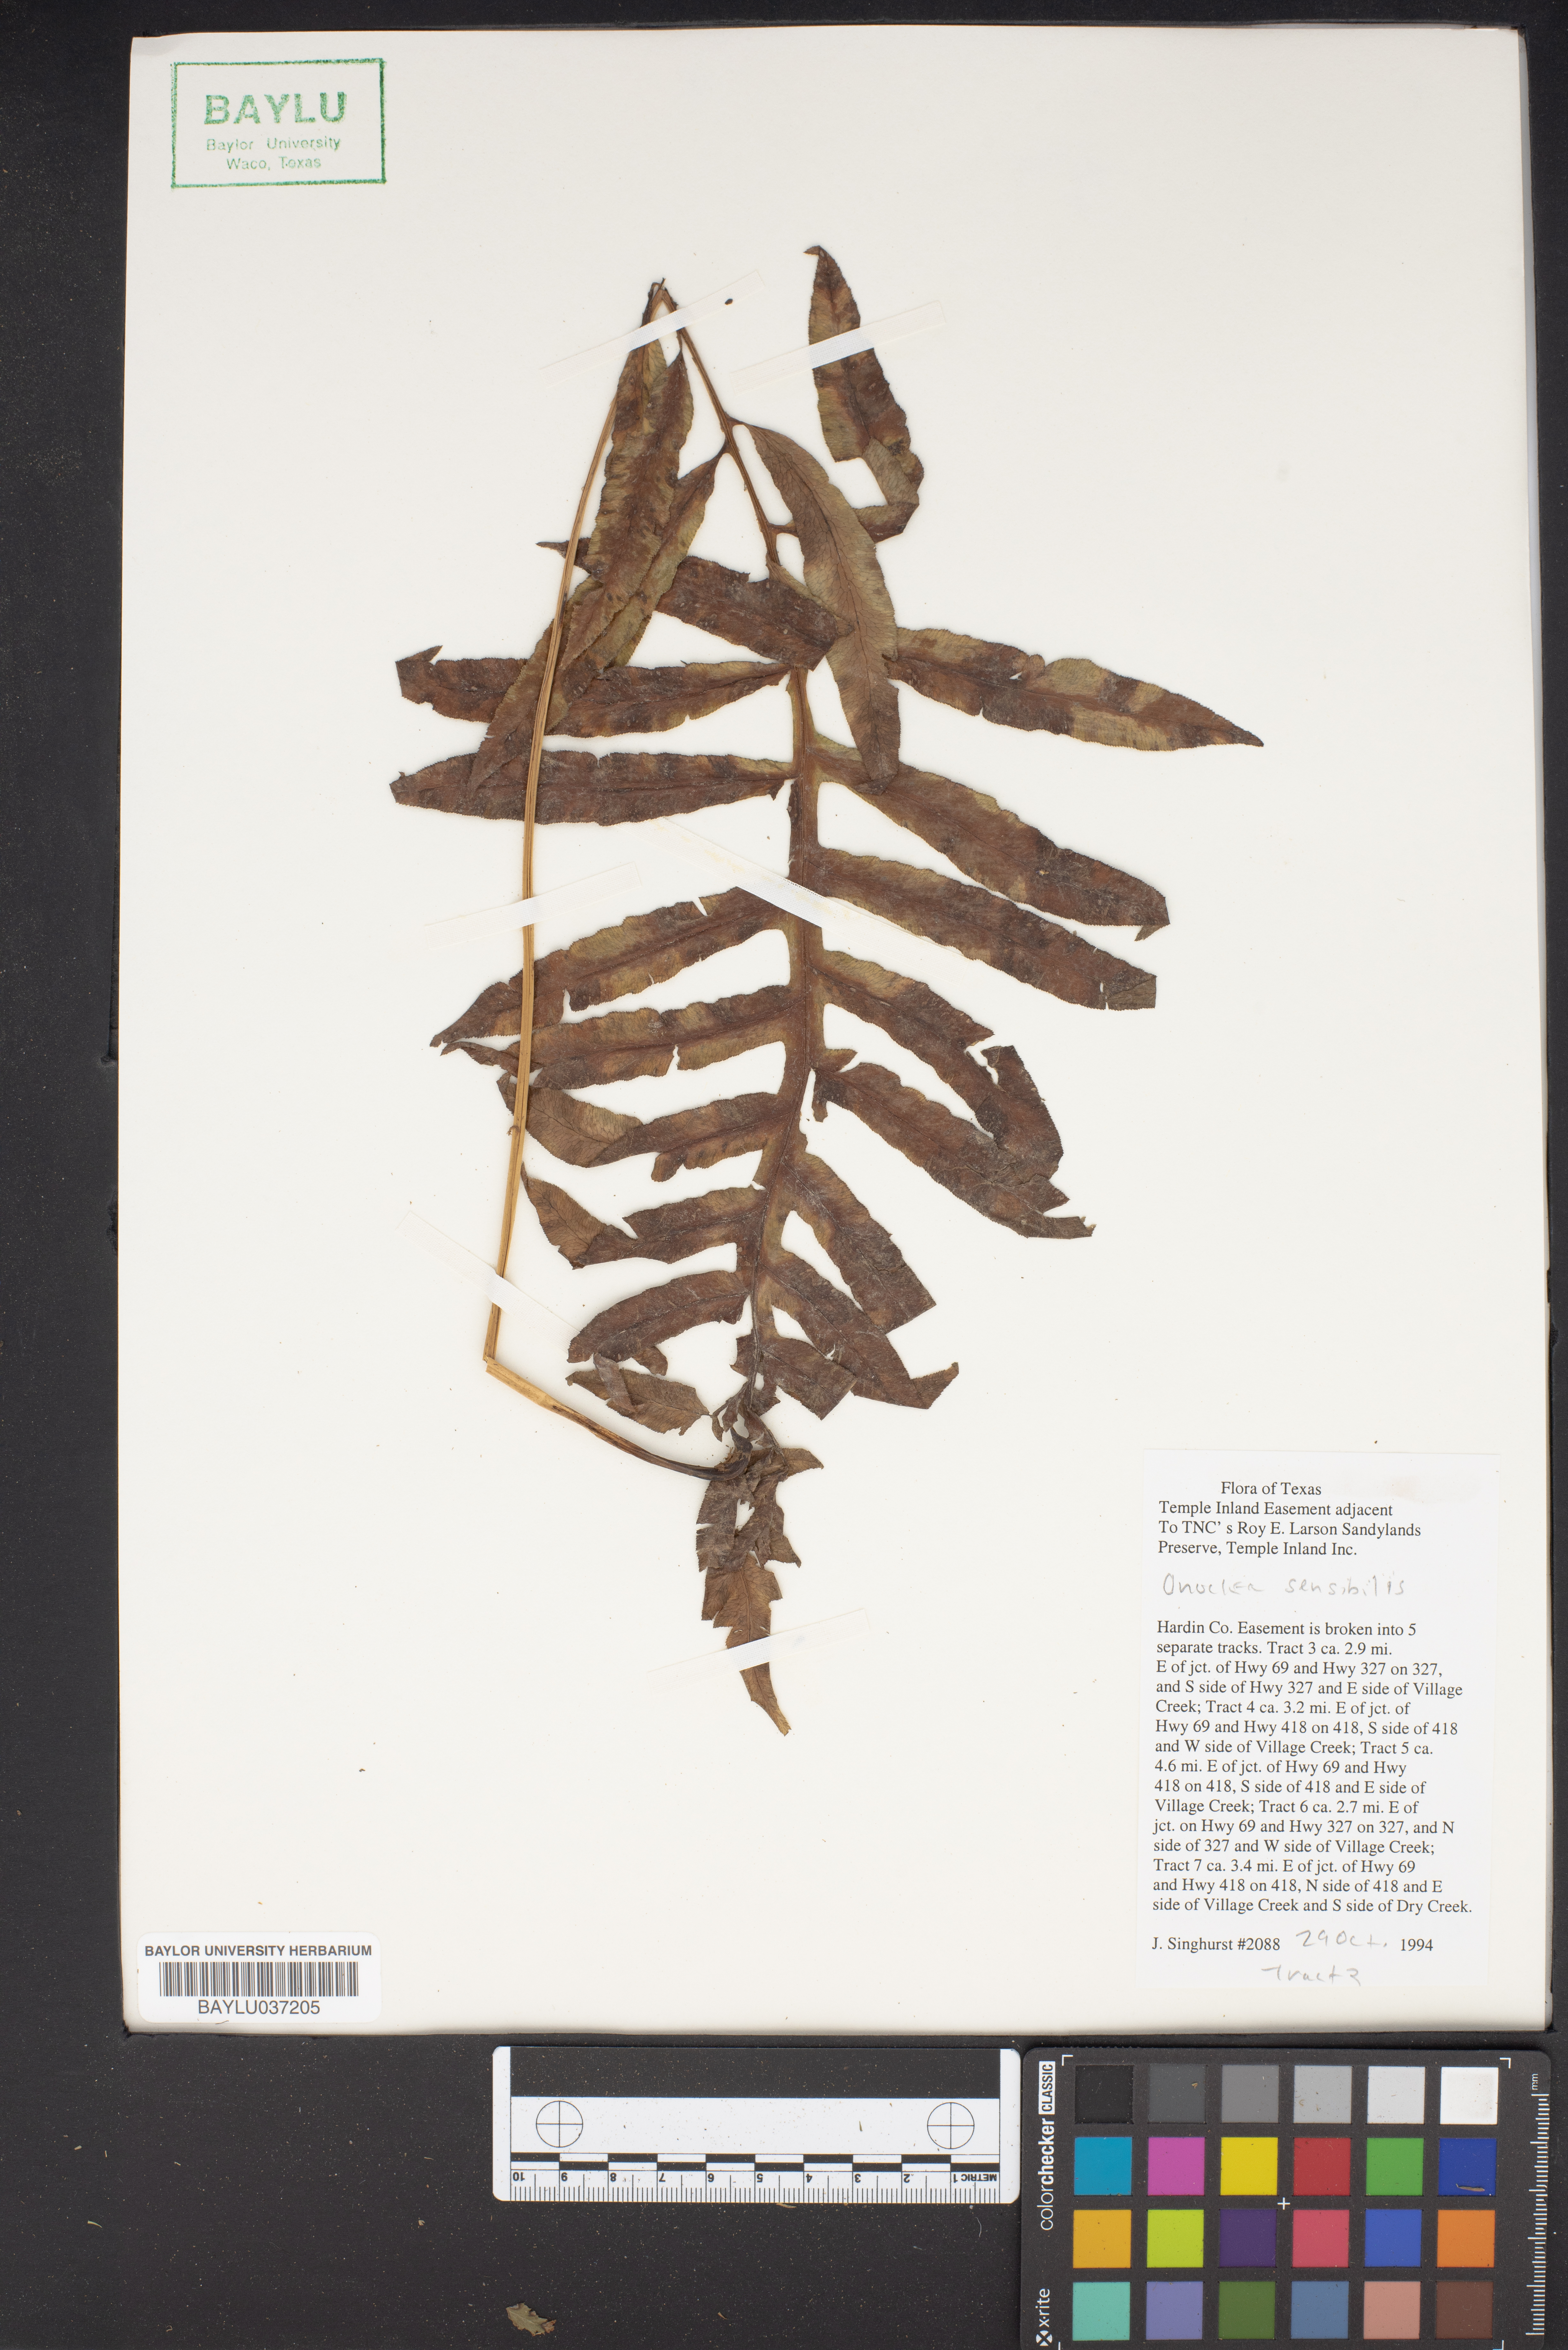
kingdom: Plantae
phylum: Tracheophyta
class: Polypodiopsida
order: Polypodiales
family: Onocleaceae
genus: Onoclea
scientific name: Onoclea sensibilis
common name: Sensitive fern
